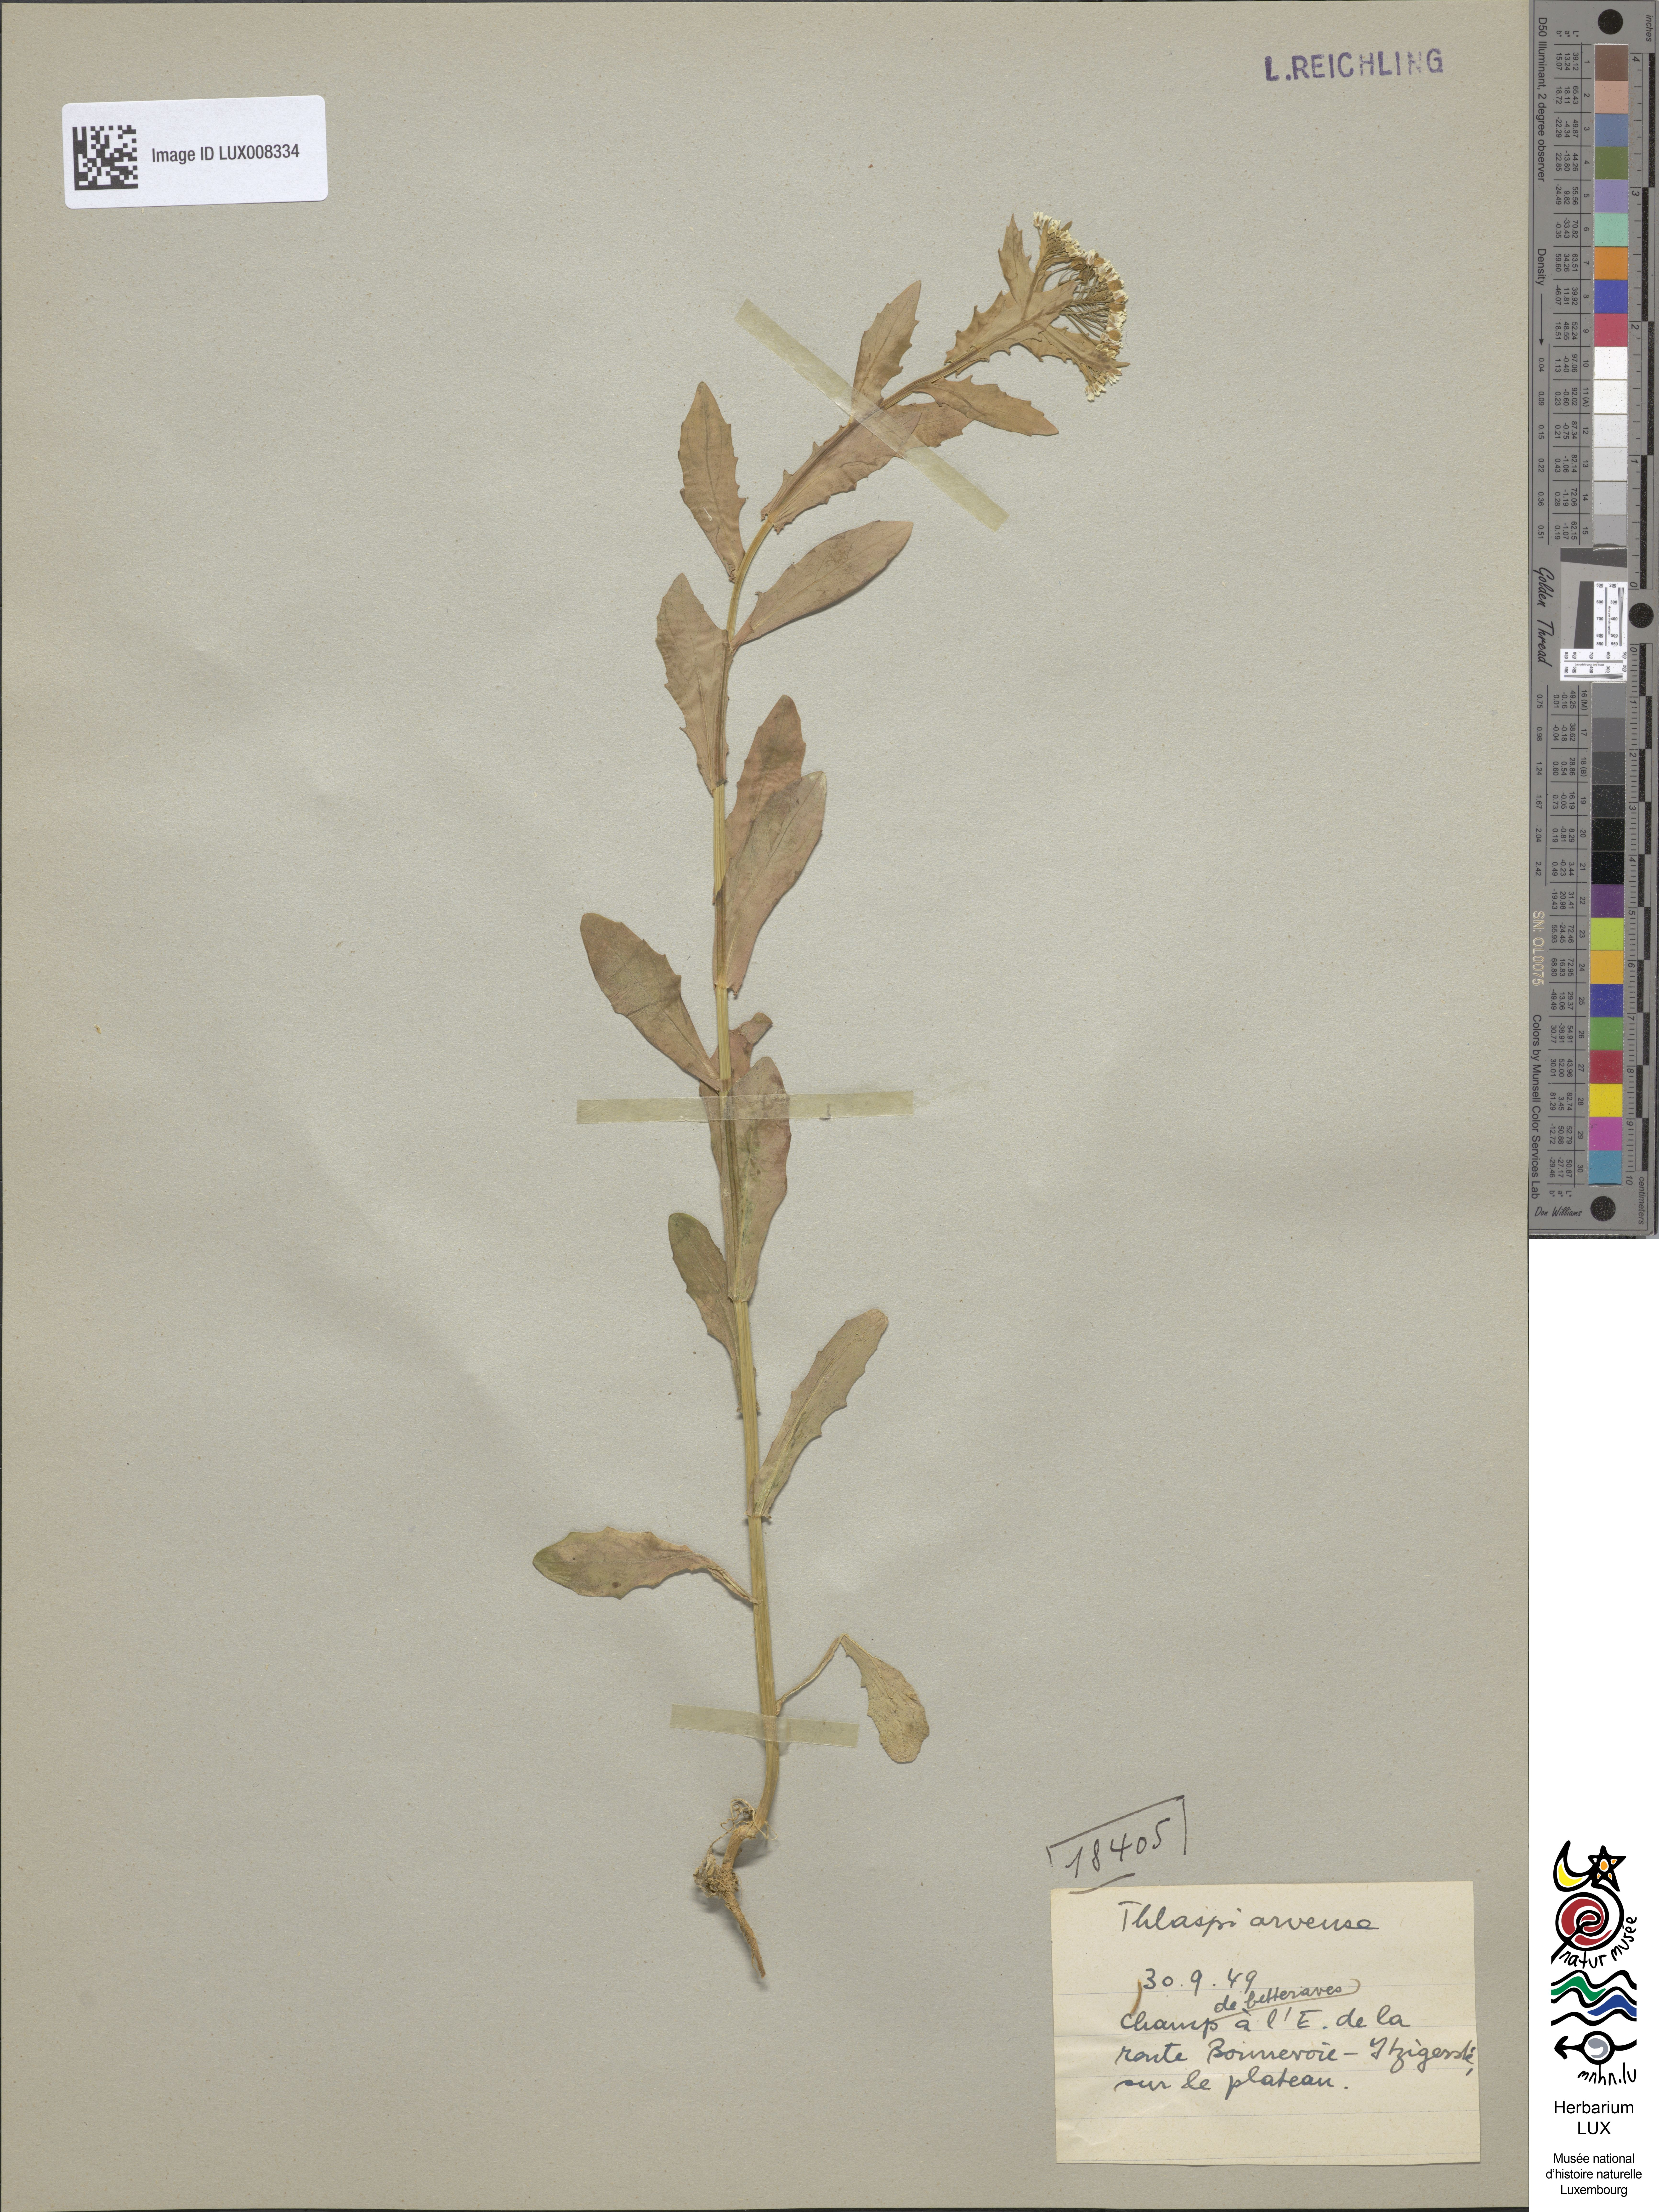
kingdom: Plantae
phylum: Tracheophyta
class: Magnoliopsida
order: Brassicales
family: Brassicaceae
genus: Thlaspi
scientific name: Thlaspi arvense
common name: Field pennycress
